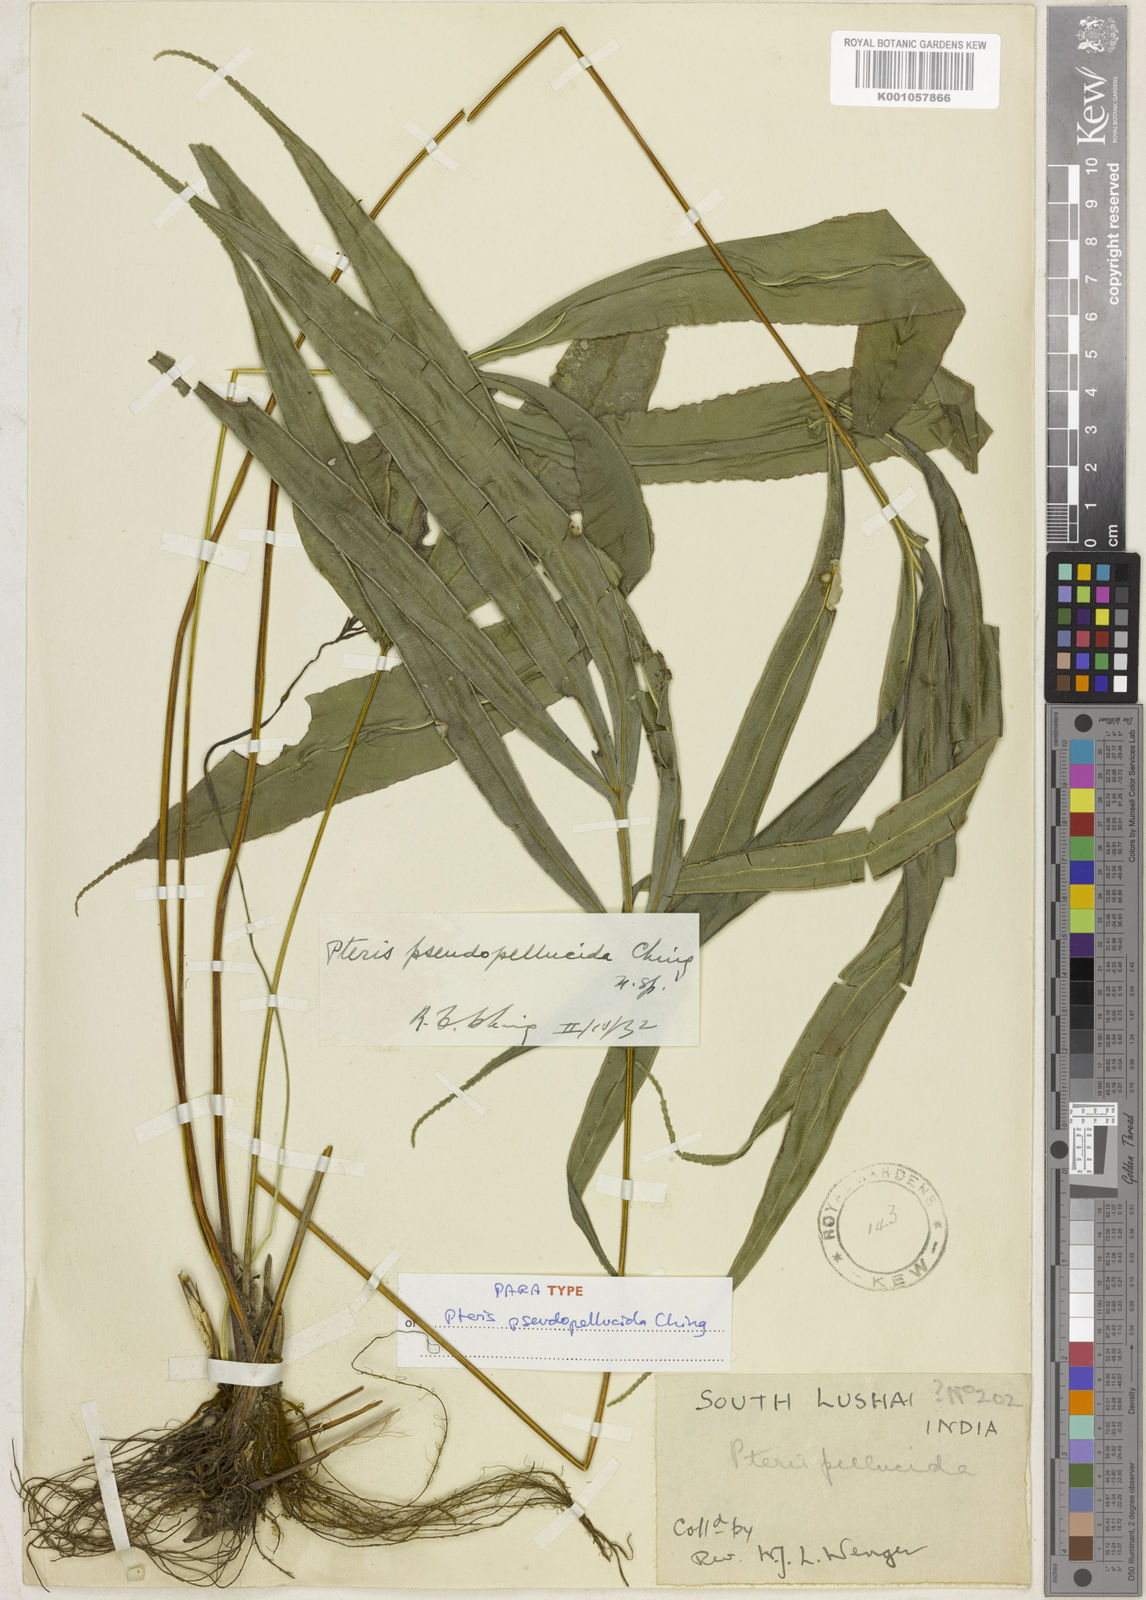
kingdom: Plantae
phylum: Tracheophyta
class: Polypodiopsida
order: Polypodiales
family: Pteridaceae
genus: Pteris
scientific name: Pteris pseudopellucida
